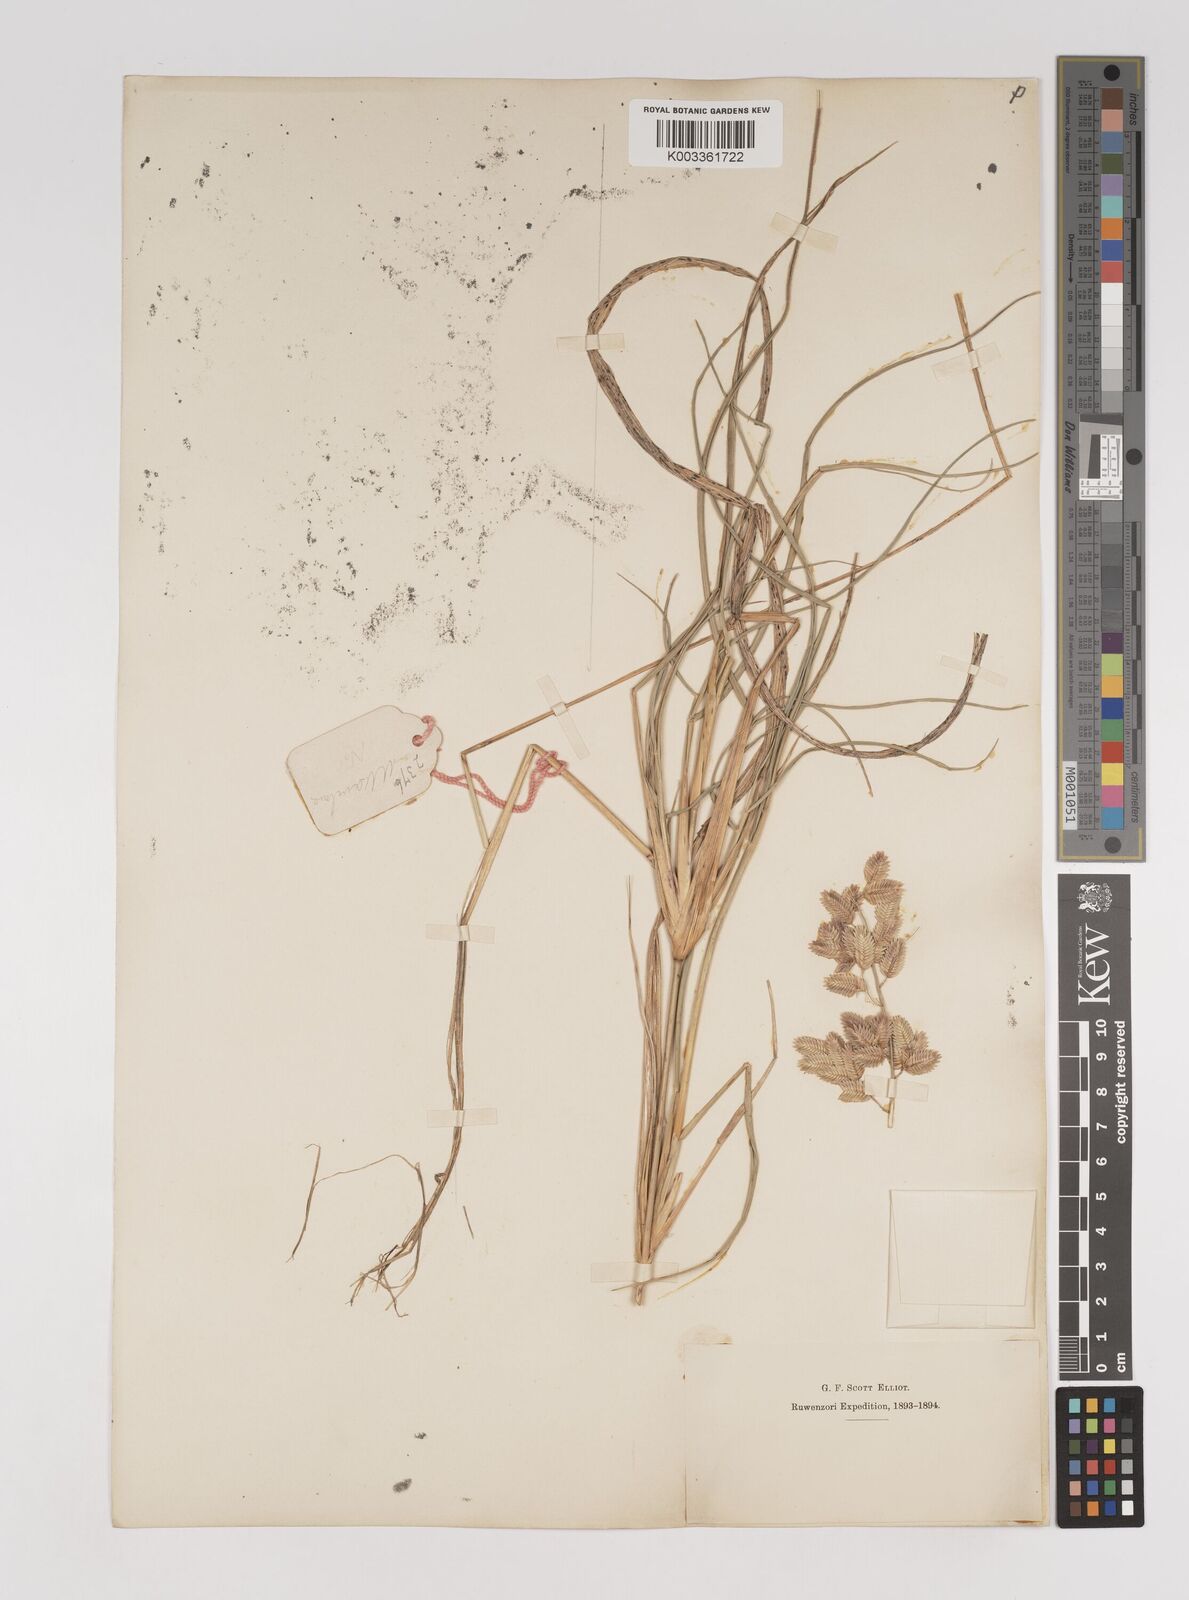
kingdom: Plantae
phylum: Tracheophyta
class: Liliopsida
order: Poales
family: Poaceae
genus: Eragrostis
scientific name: Eragrostis superba
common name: Wilman lovegrass
